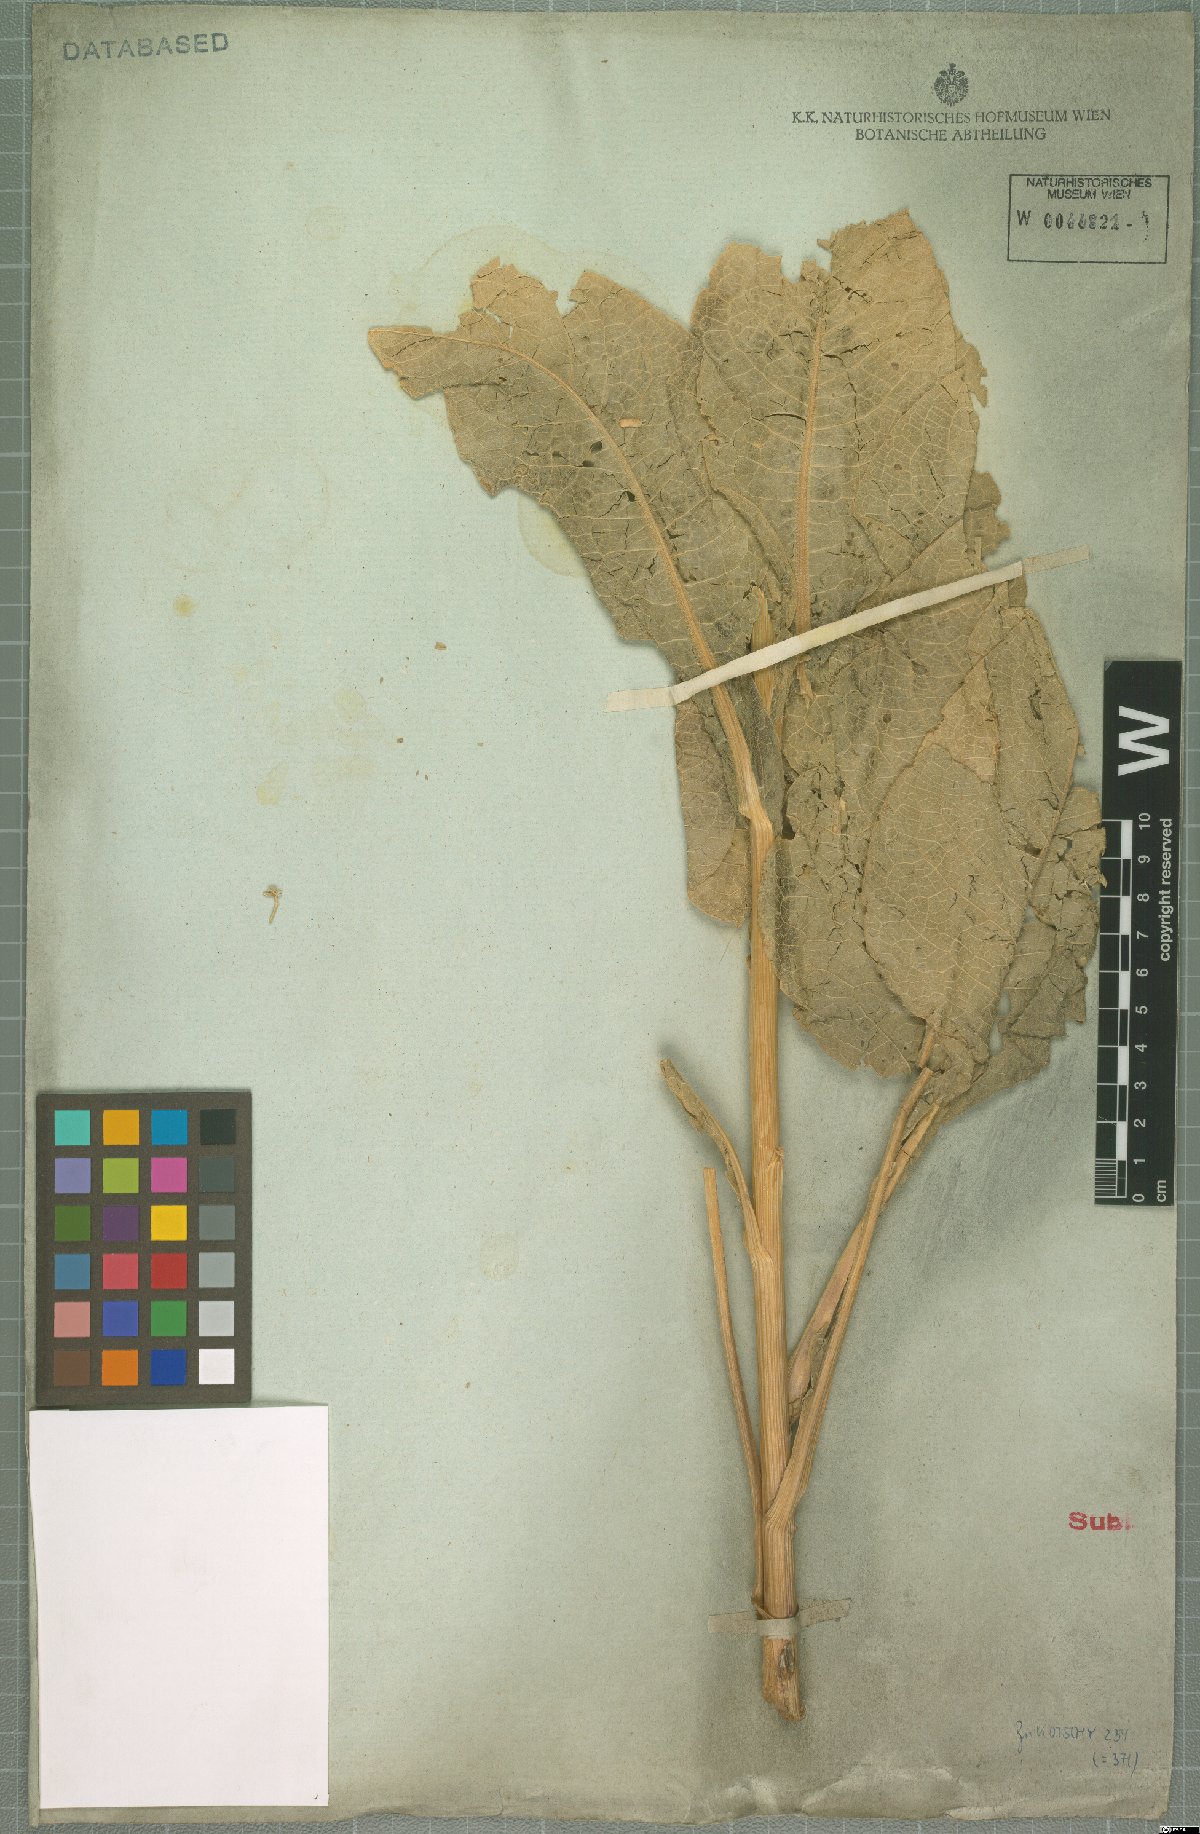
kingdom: Plantae
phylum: Tracheophyta
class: Magnoliopsida
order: Asterales
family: Asteraceae
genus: Centaurea
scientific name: Centaurea regia
